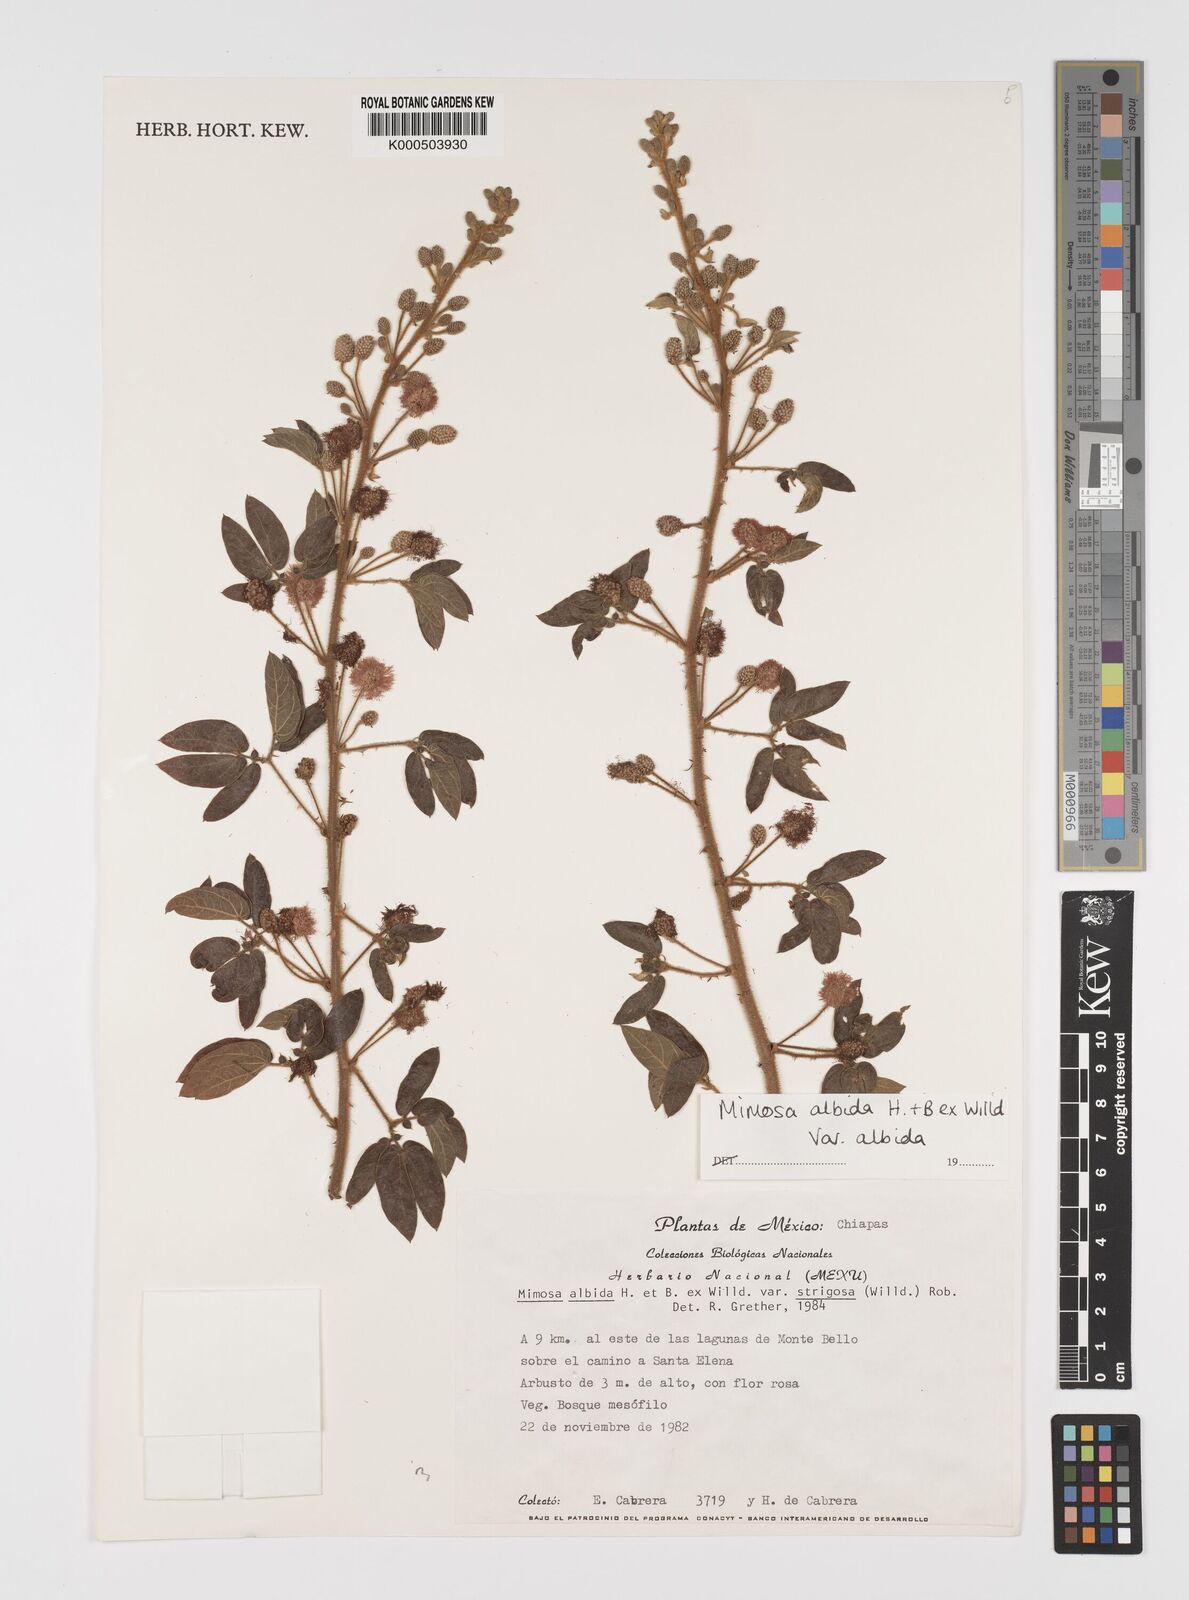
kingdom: Plantae
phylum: Tracheophyta
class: Magnoliopsida
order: Fabales
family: Fabaceae
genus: Mimosa
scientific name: Mimosa albida
